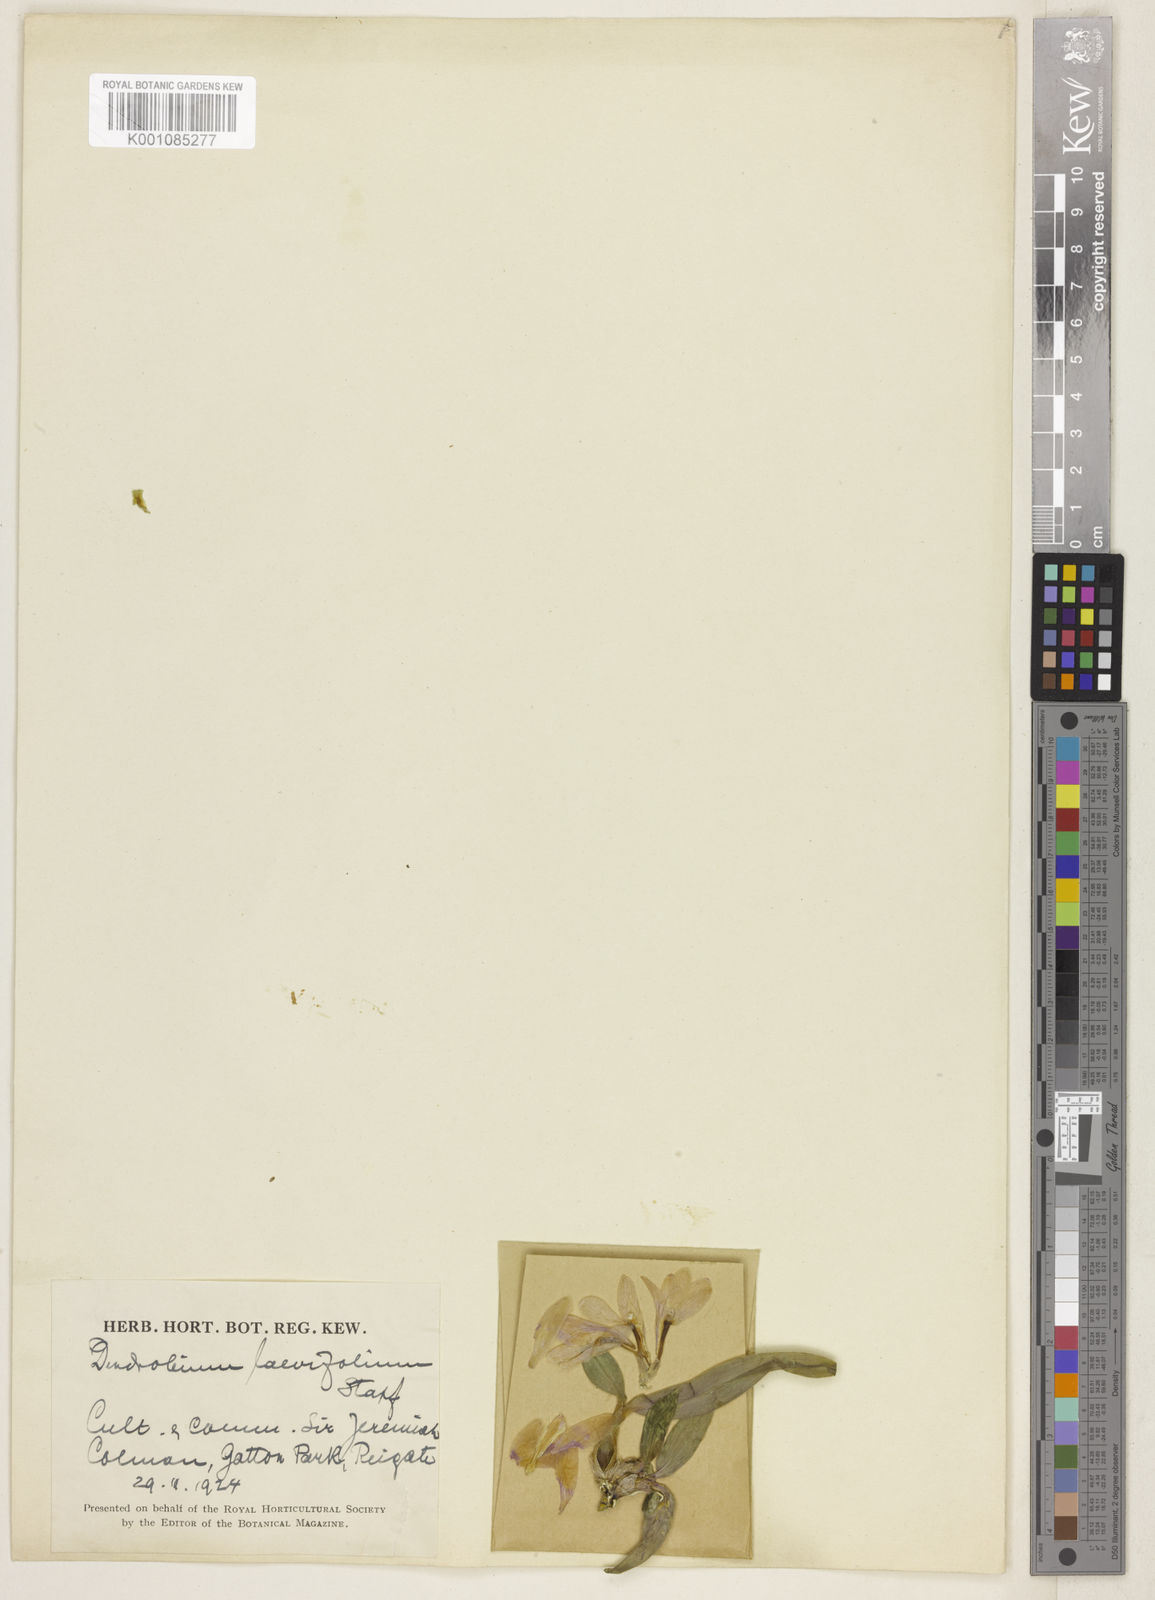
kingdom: Plantae
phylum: Tracheophyta
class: Liliopsida
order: Asparagales
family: Orchidaceae
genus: Dendrobium
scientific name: Dendrobium laevifolium
